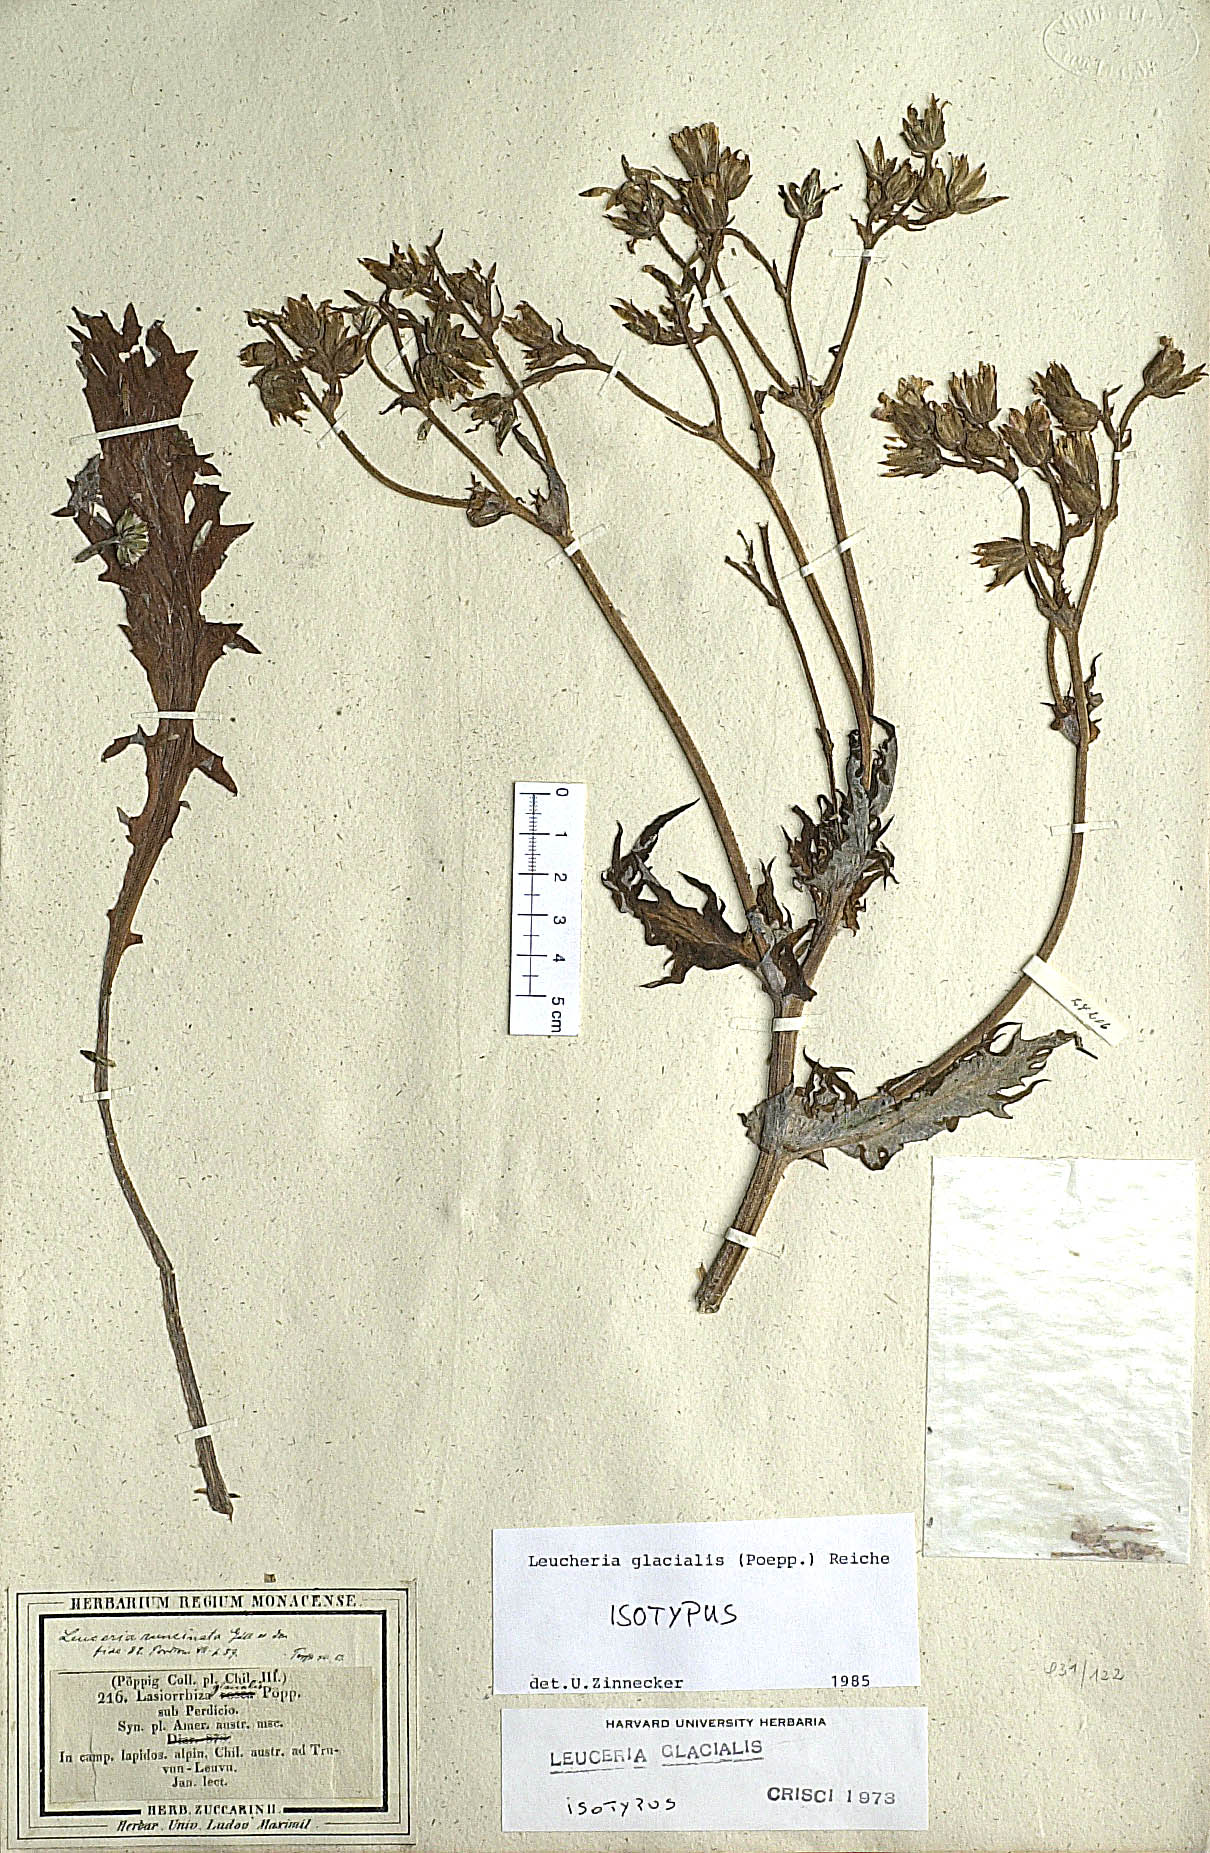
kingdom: Plantae
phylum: Tracheophyta
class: Magnoliopsida
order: Asterales
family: Asteraceae
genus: Leucheria
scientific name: Leucheria glacialis
